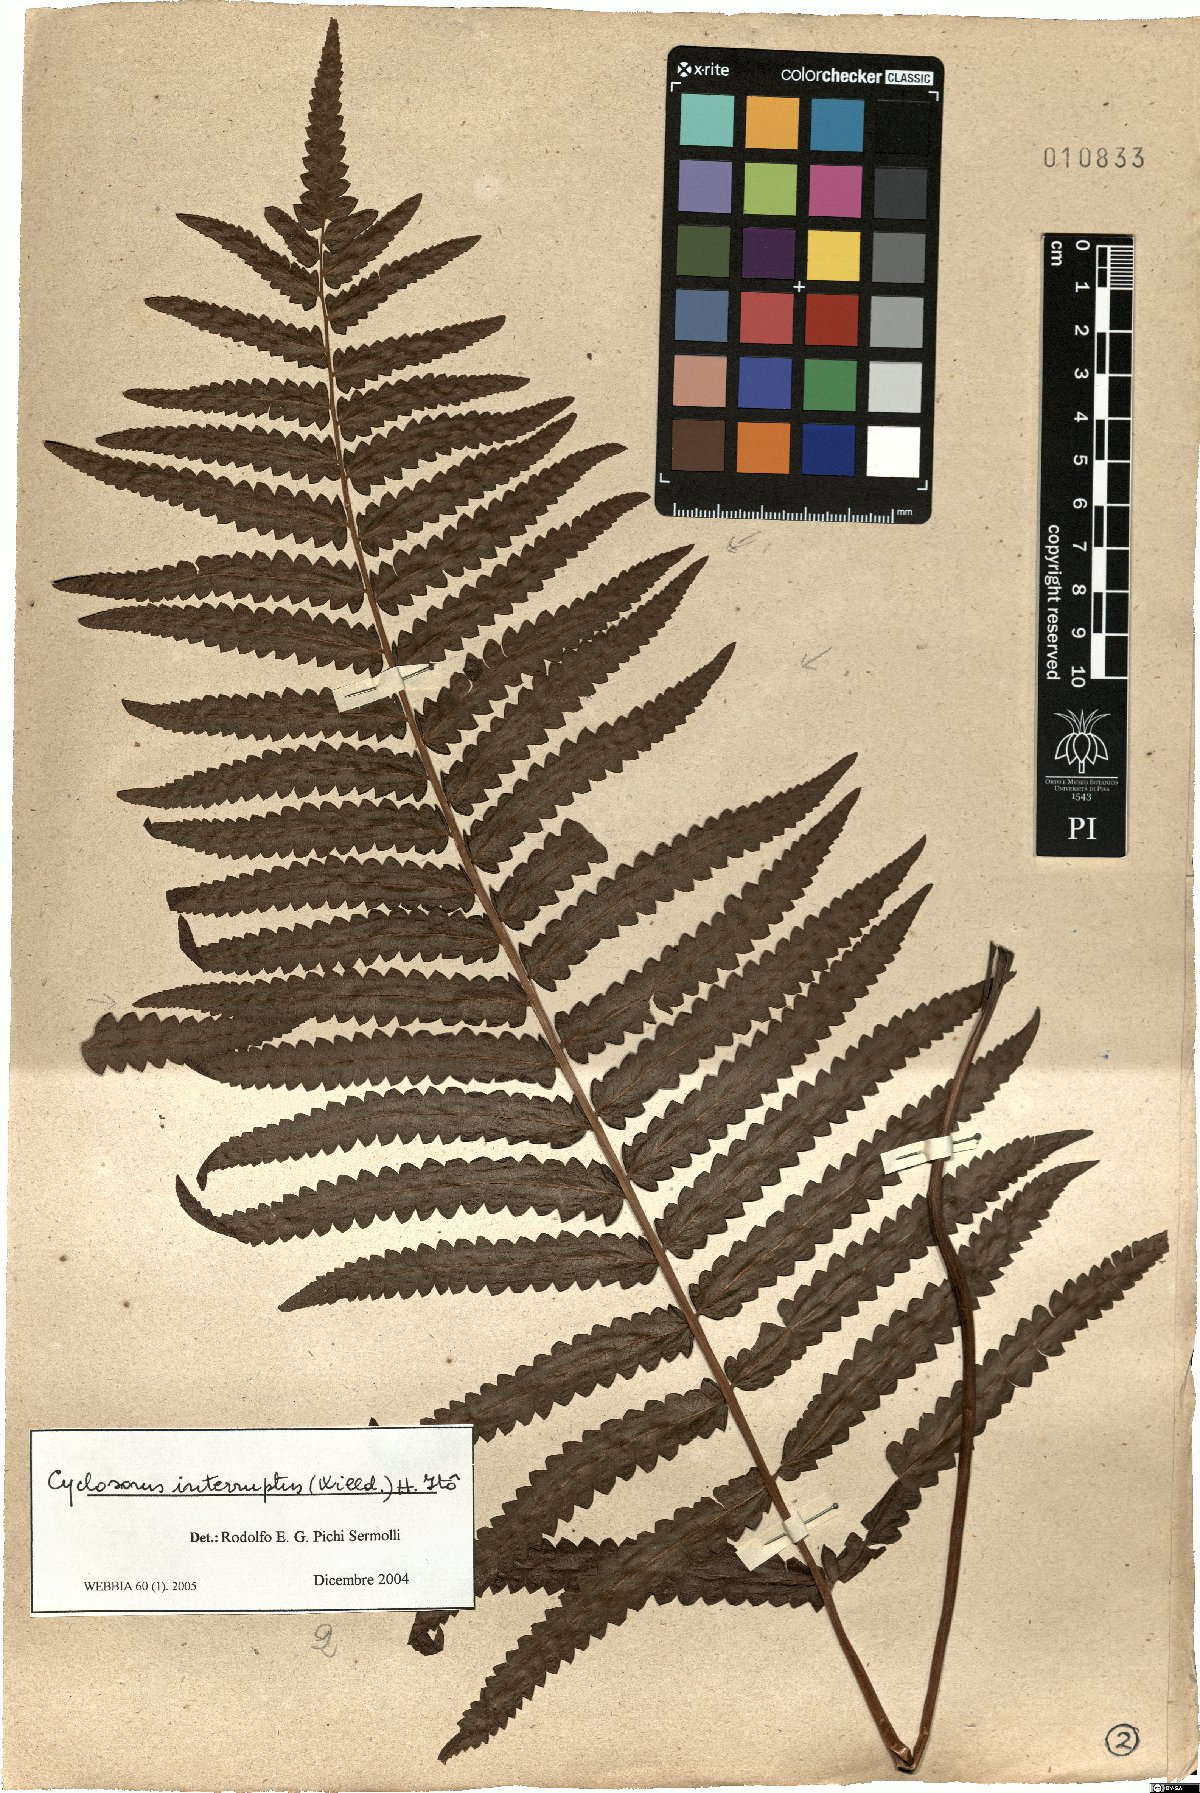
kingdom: Plantae
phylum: Tracheophyta
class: Polypodiopsida
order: Polypodiales
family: Thelypteridaceae
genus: Cyclosorus
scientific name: Cyclosorus interruptus
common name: Neke fern
